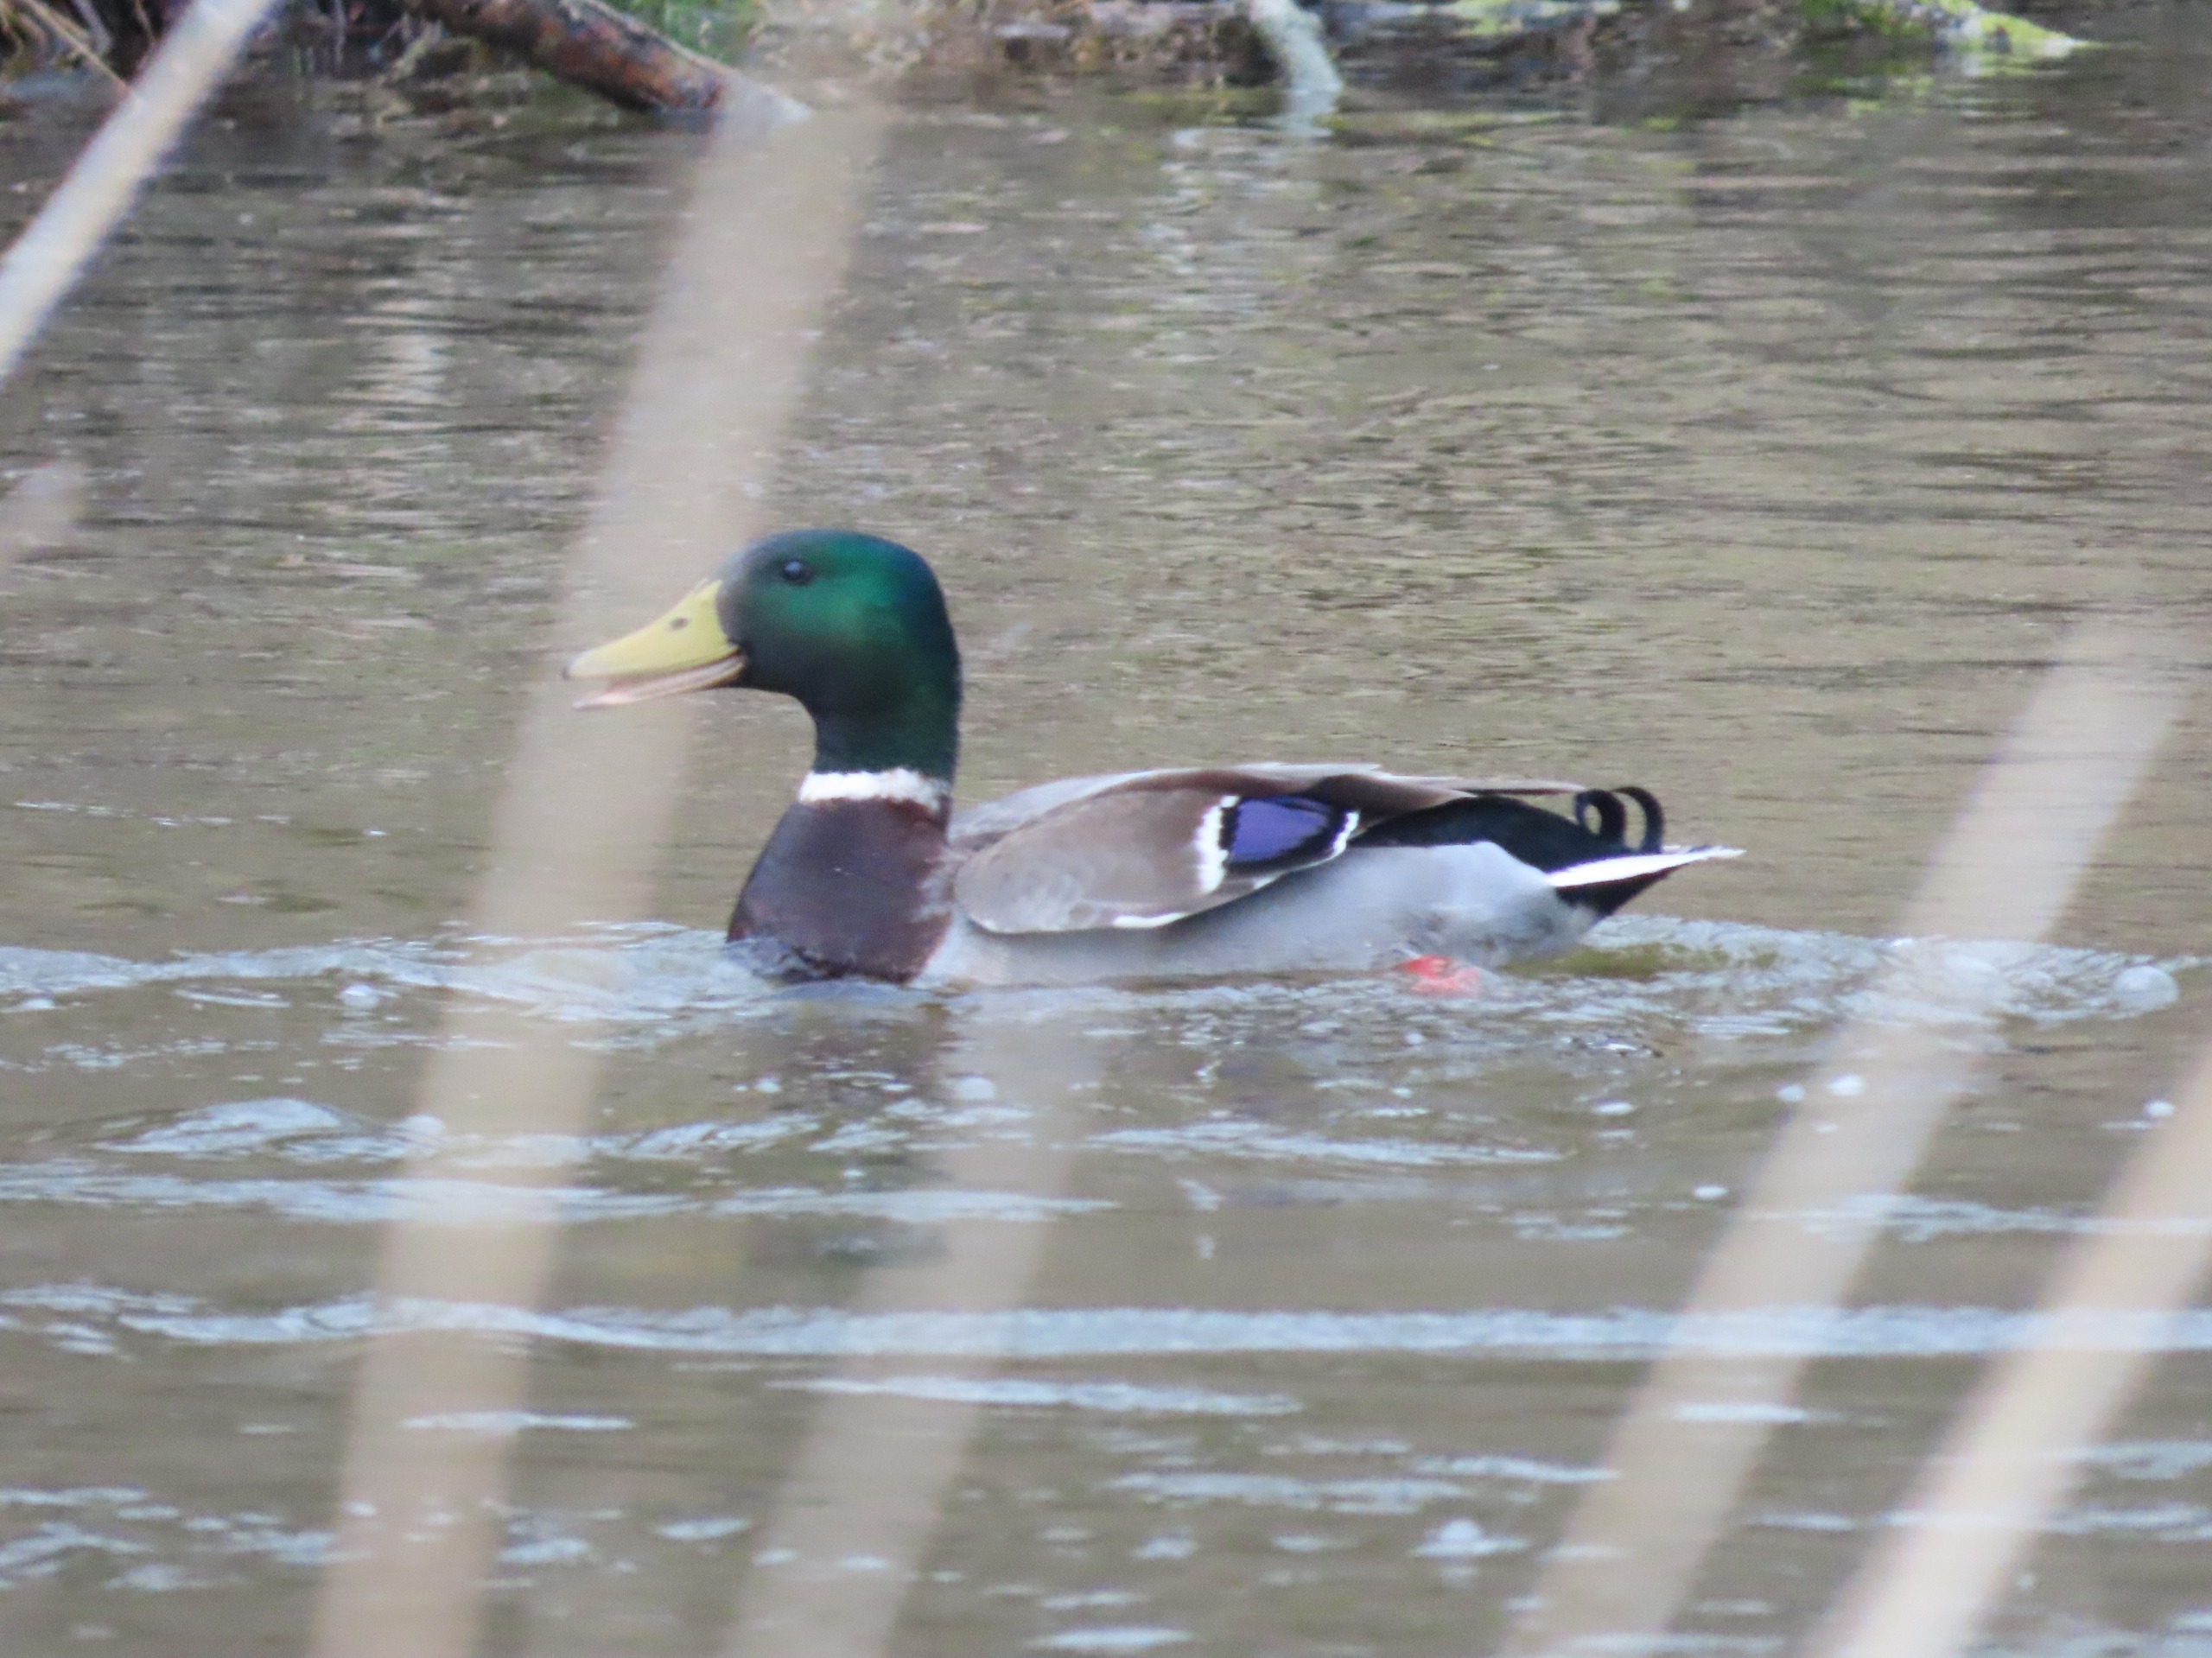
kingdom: Animalia
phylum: Chordata
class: Aves
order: Anseriformes
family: Anatidae
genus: Anas
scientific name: Anas platyrhynchos
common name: Gråand
